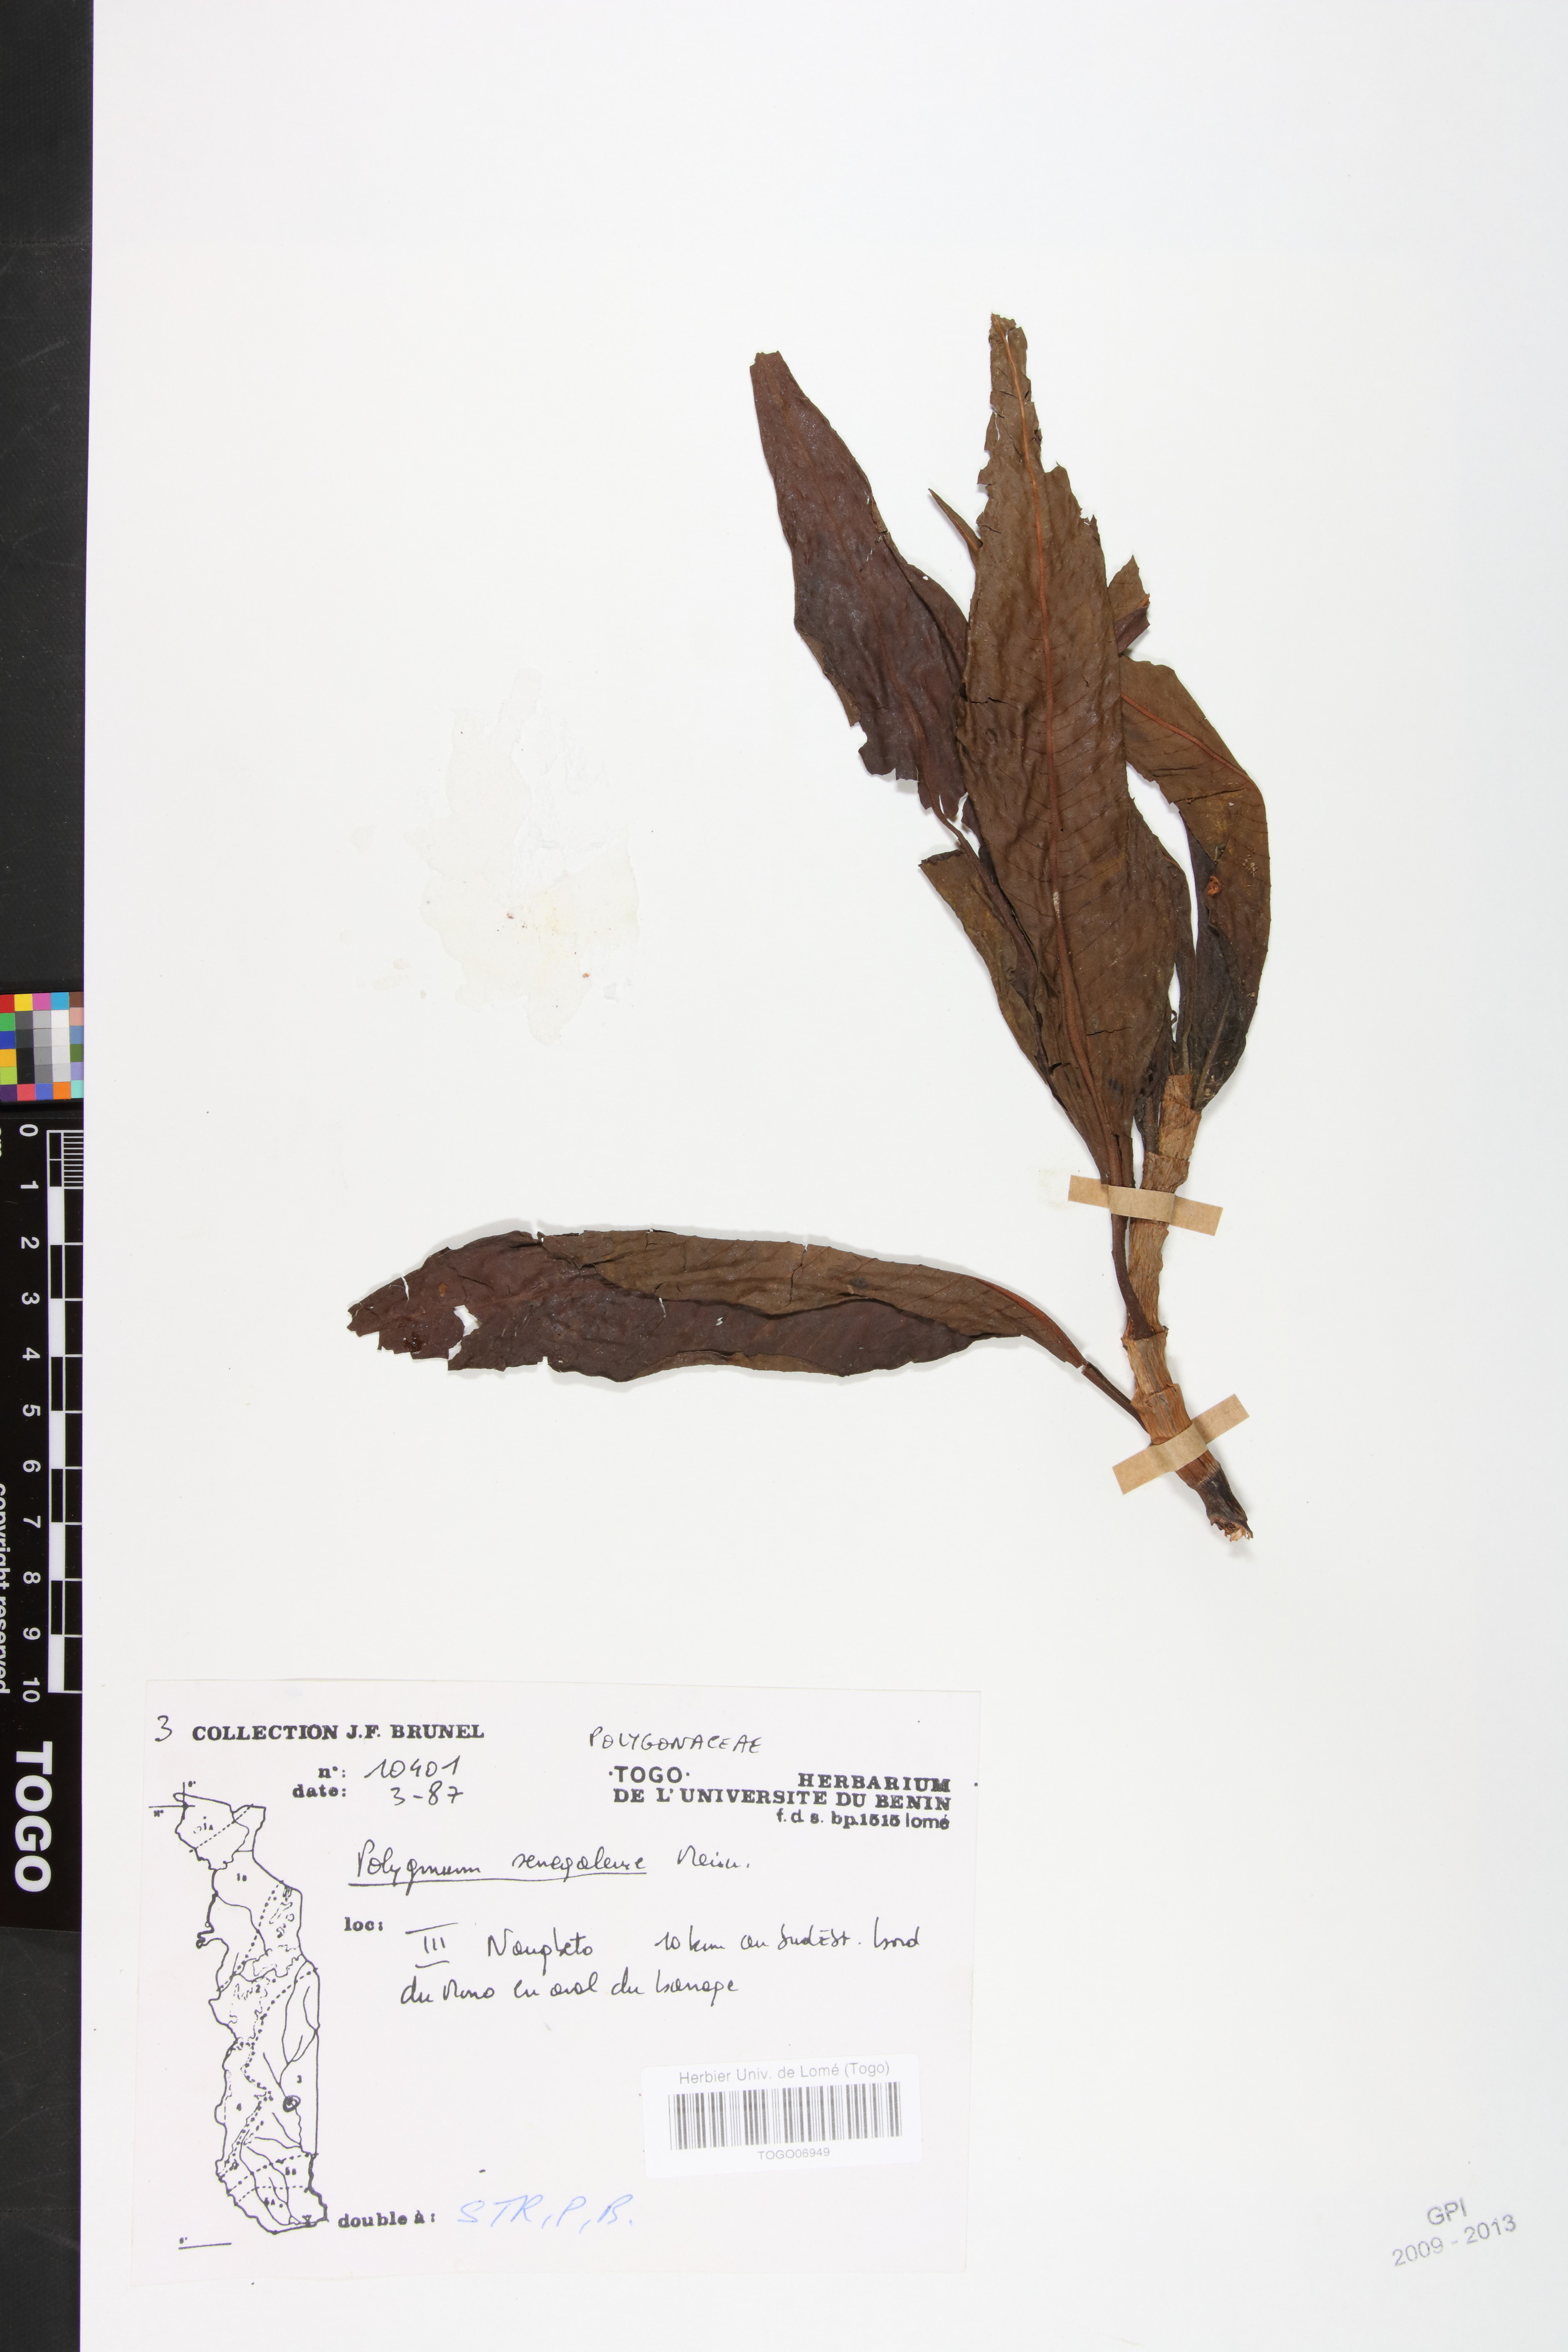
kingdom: Plantae
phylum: Tracheophyta
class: Magnoliopsida
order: Caryophyllales
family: Polygonaceae
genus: Persicaria
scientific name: Persicaria senegalensis
